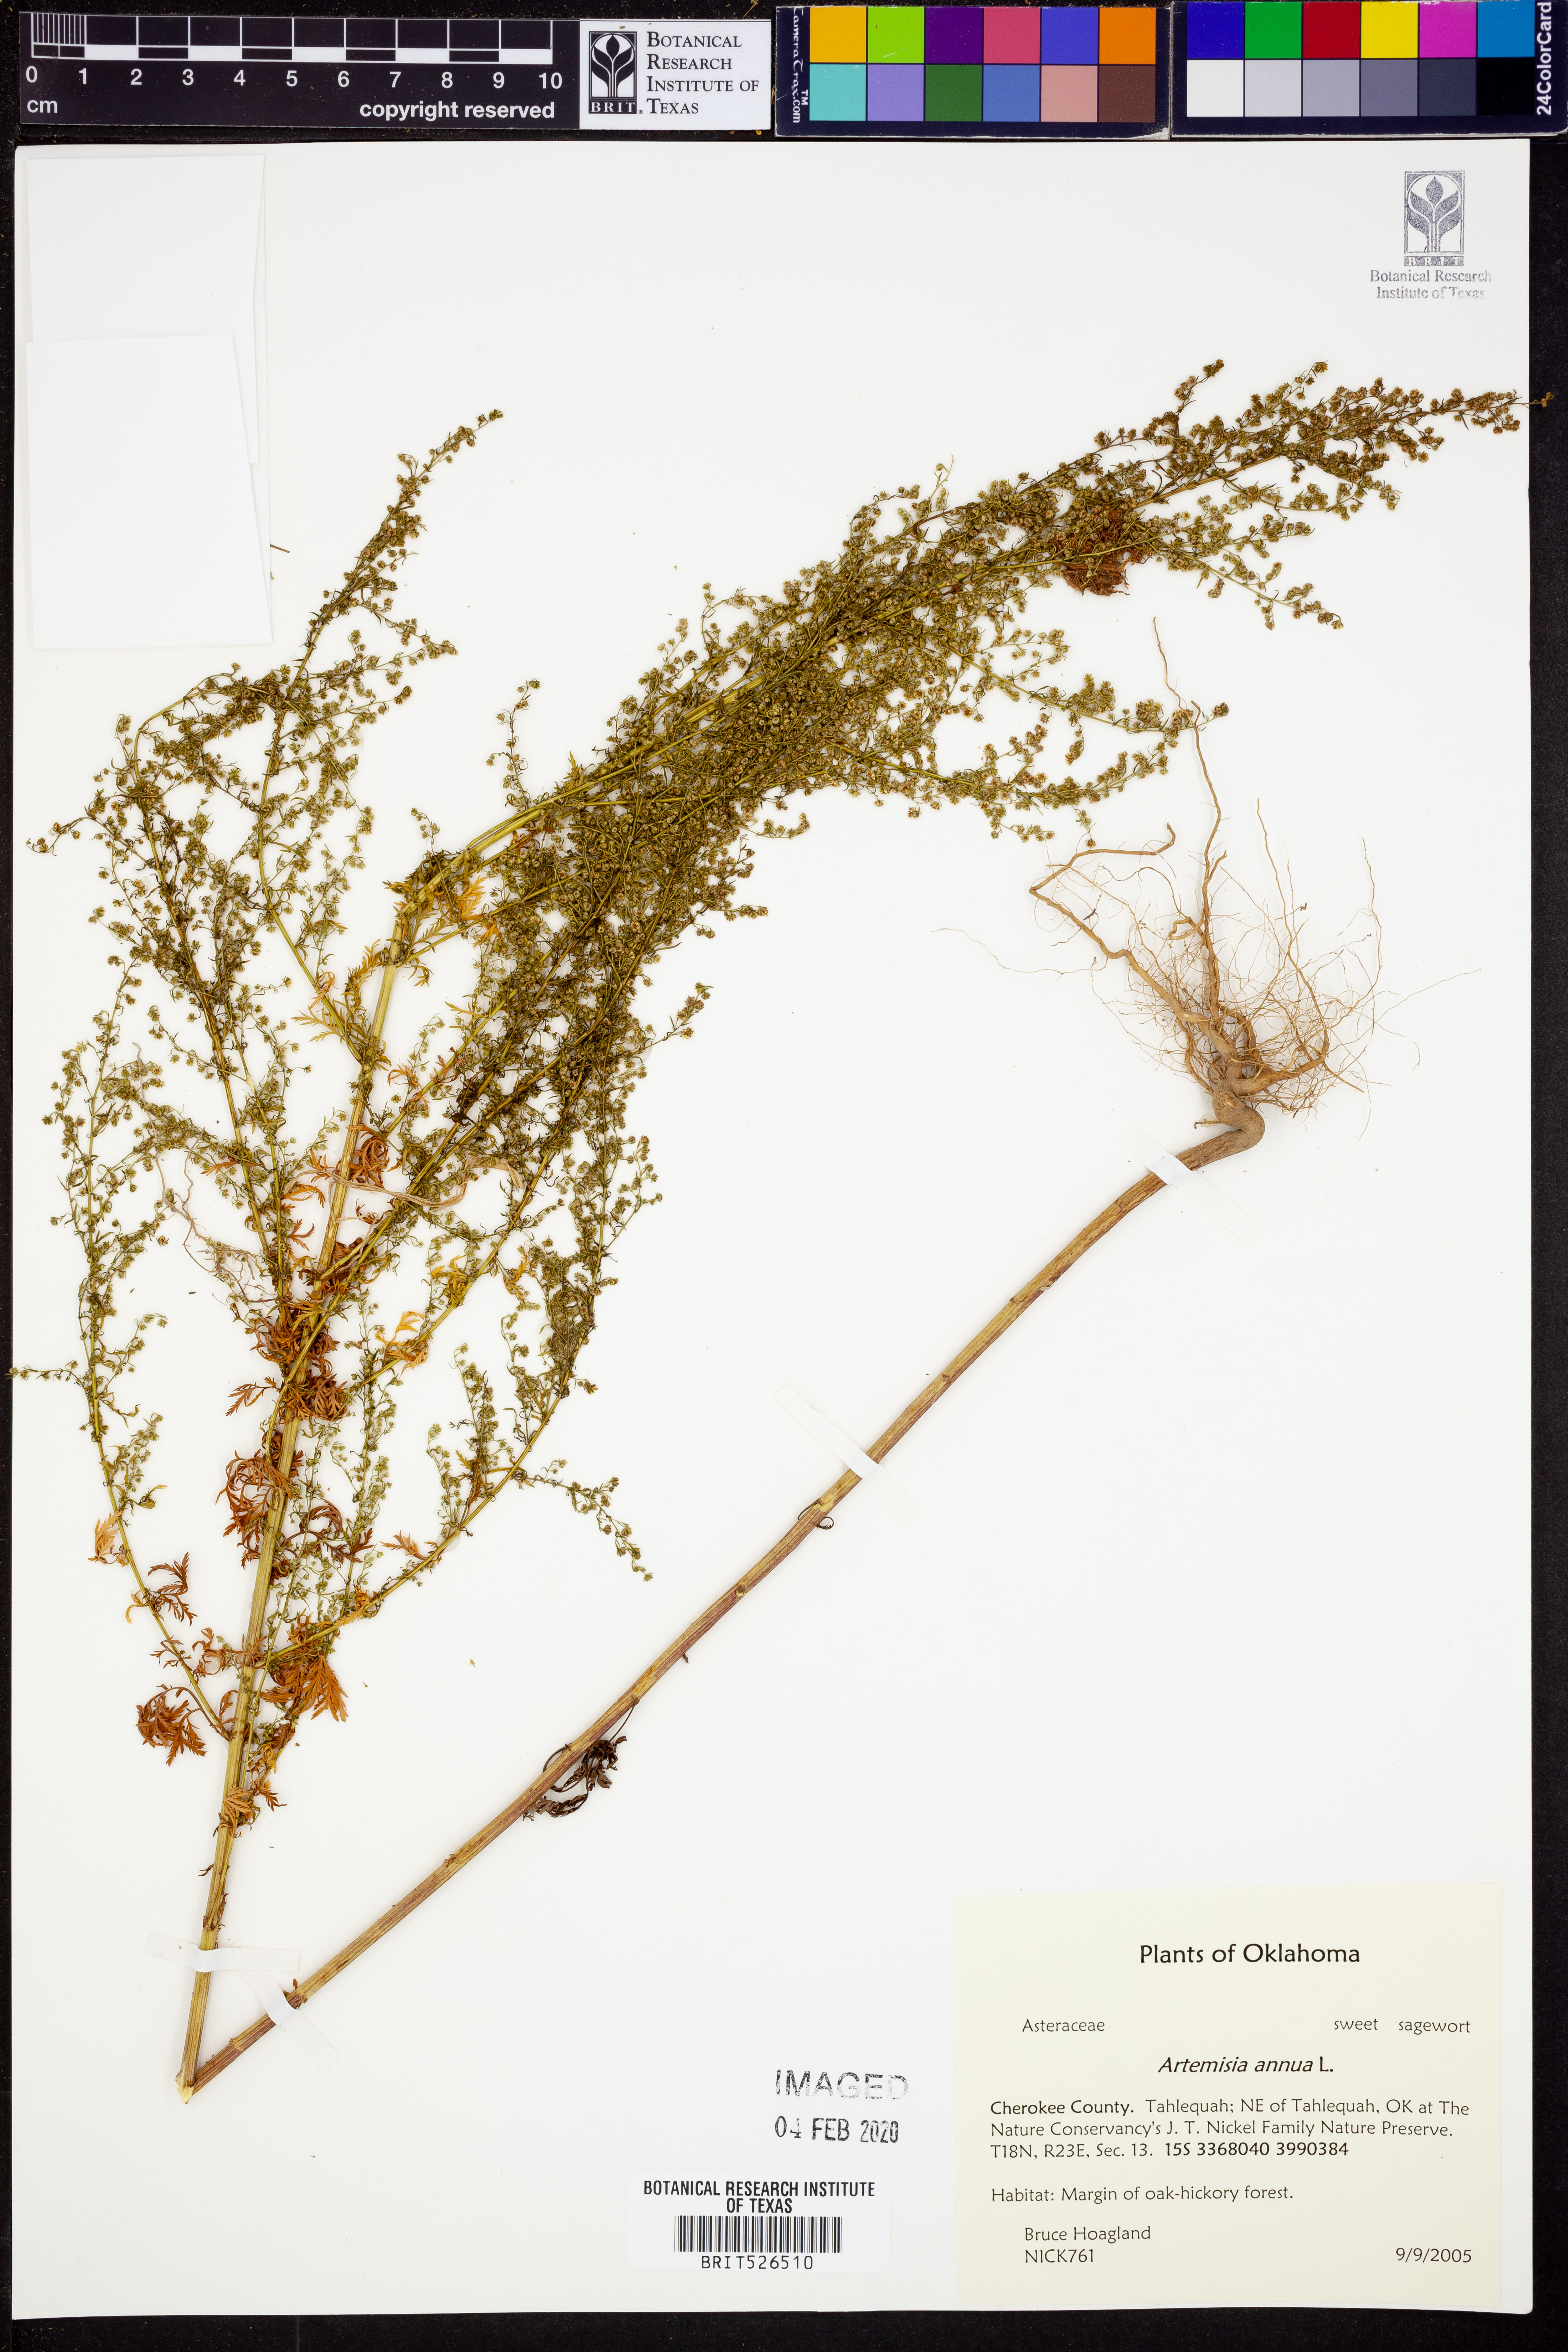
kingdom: Plantae
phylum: Tracheophyta
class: Magnoliopsida
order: Asterales
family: Asteraceae
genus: Artemisia
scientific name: Artemisia annua
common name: Sweet sagewort
